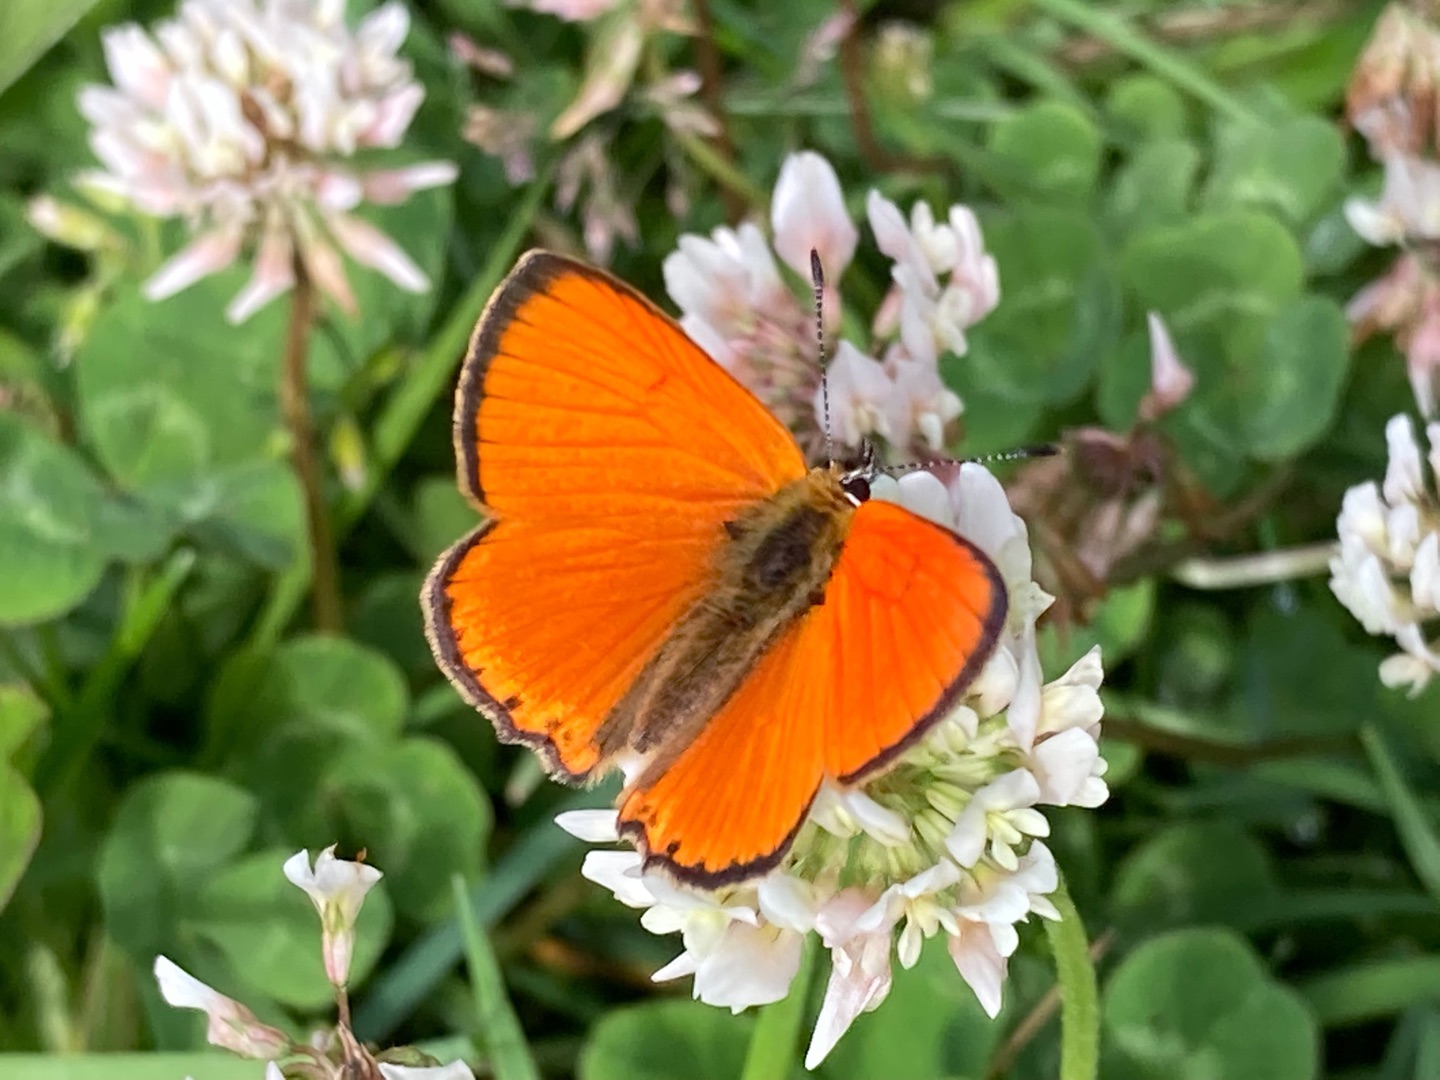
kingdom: Animalia
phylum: Arthropoda
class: Insecta
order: Lepidoptera
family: Lycaenidae
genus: Lycaena
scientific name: Lycaena virgaureae
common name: Dukatsommerfugl
